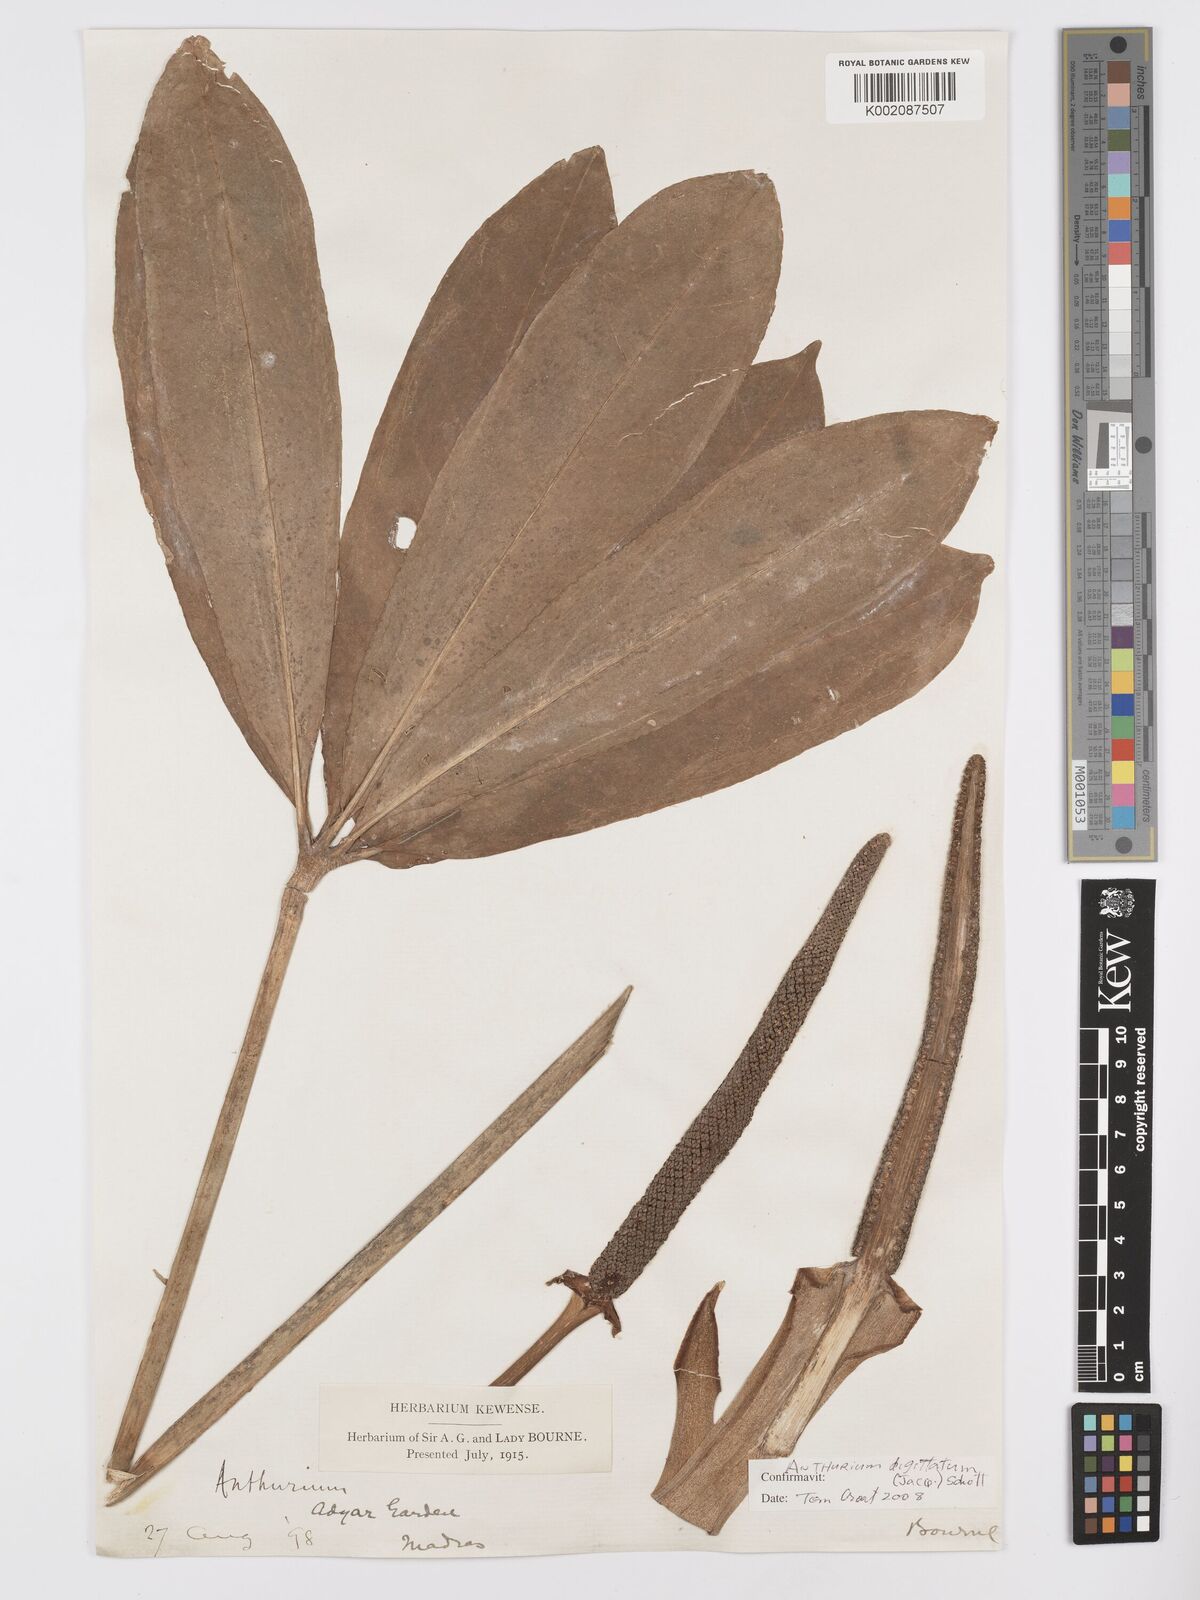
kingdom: Plantae
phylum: Tracheophyta
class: Liliopsida
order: Alismatales
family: Araceae
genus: Anthurium
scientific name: Anthurium digitatum
